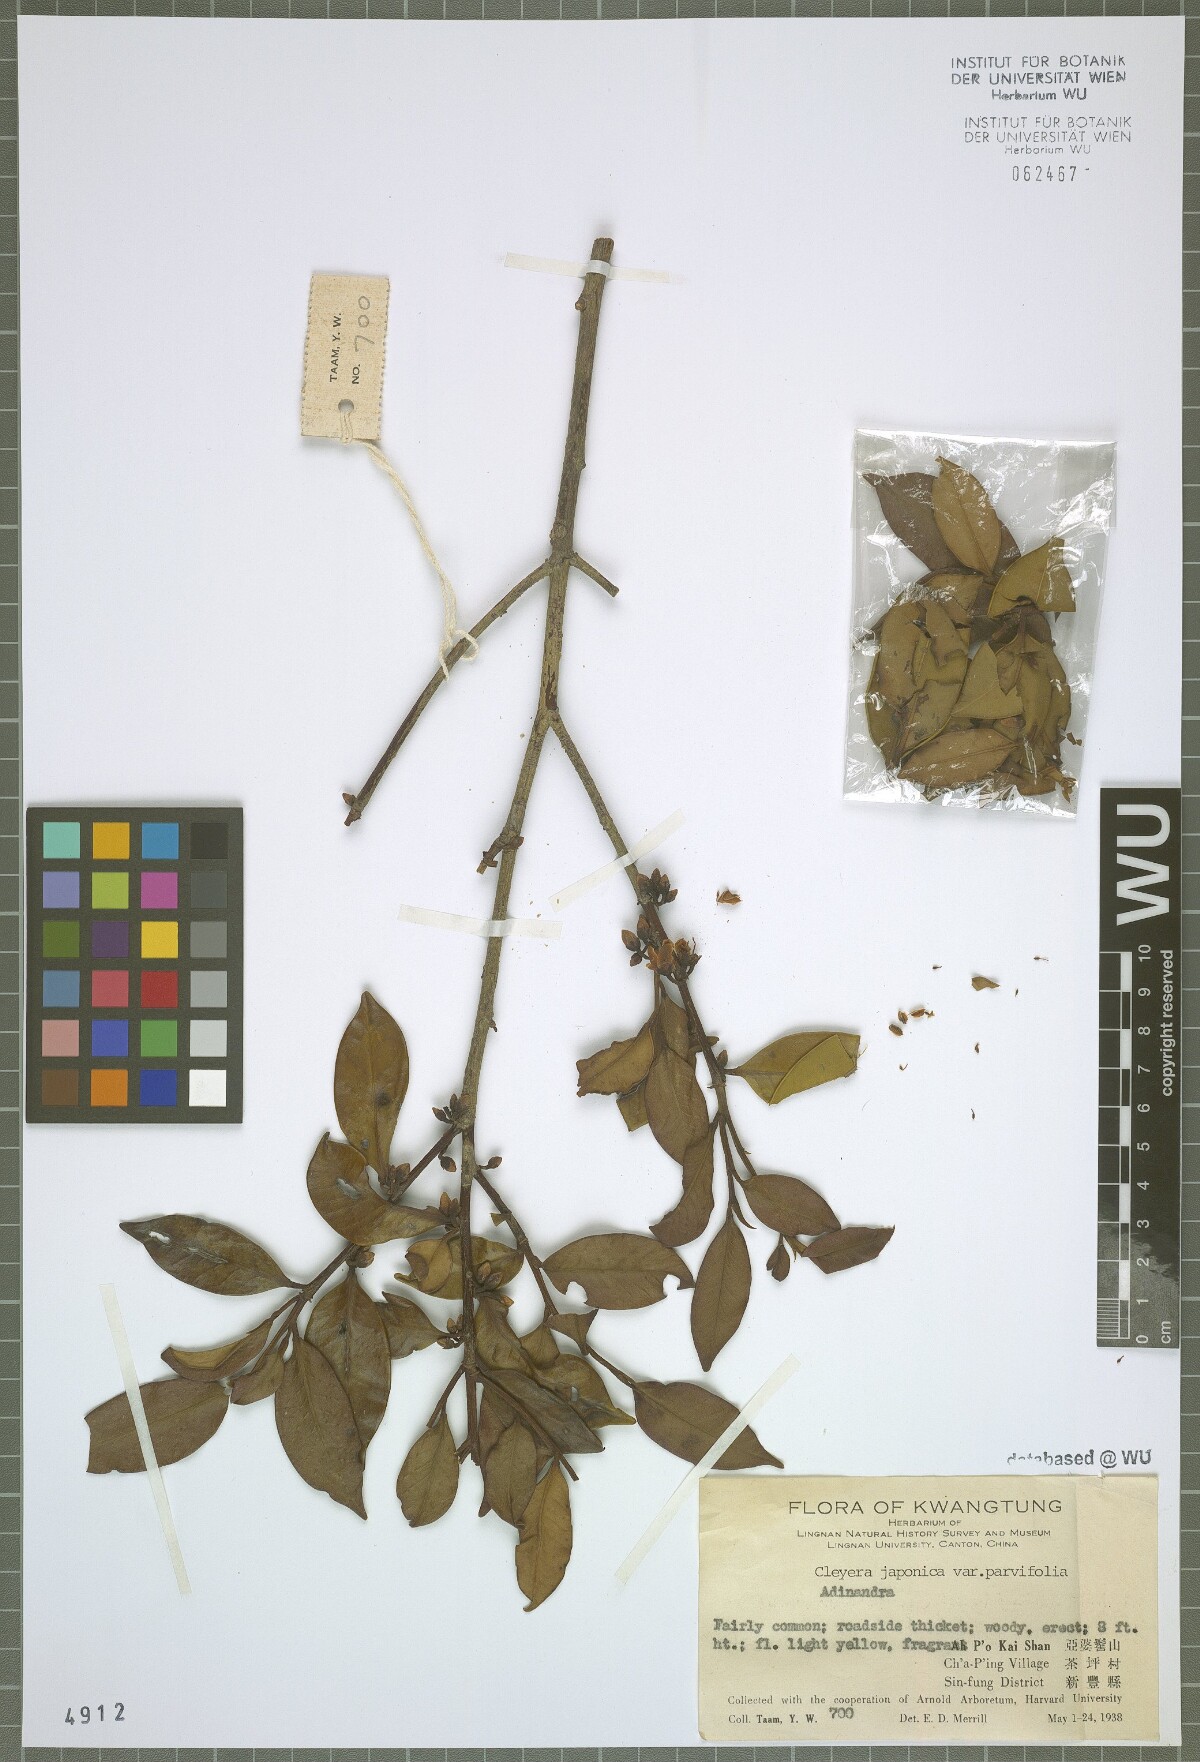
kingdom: Plantae
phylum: Tracheophyta
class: Magnoliopsida
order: Ericales
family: Pentaphylacaceae
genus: Adinandra
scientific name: Adinandra
